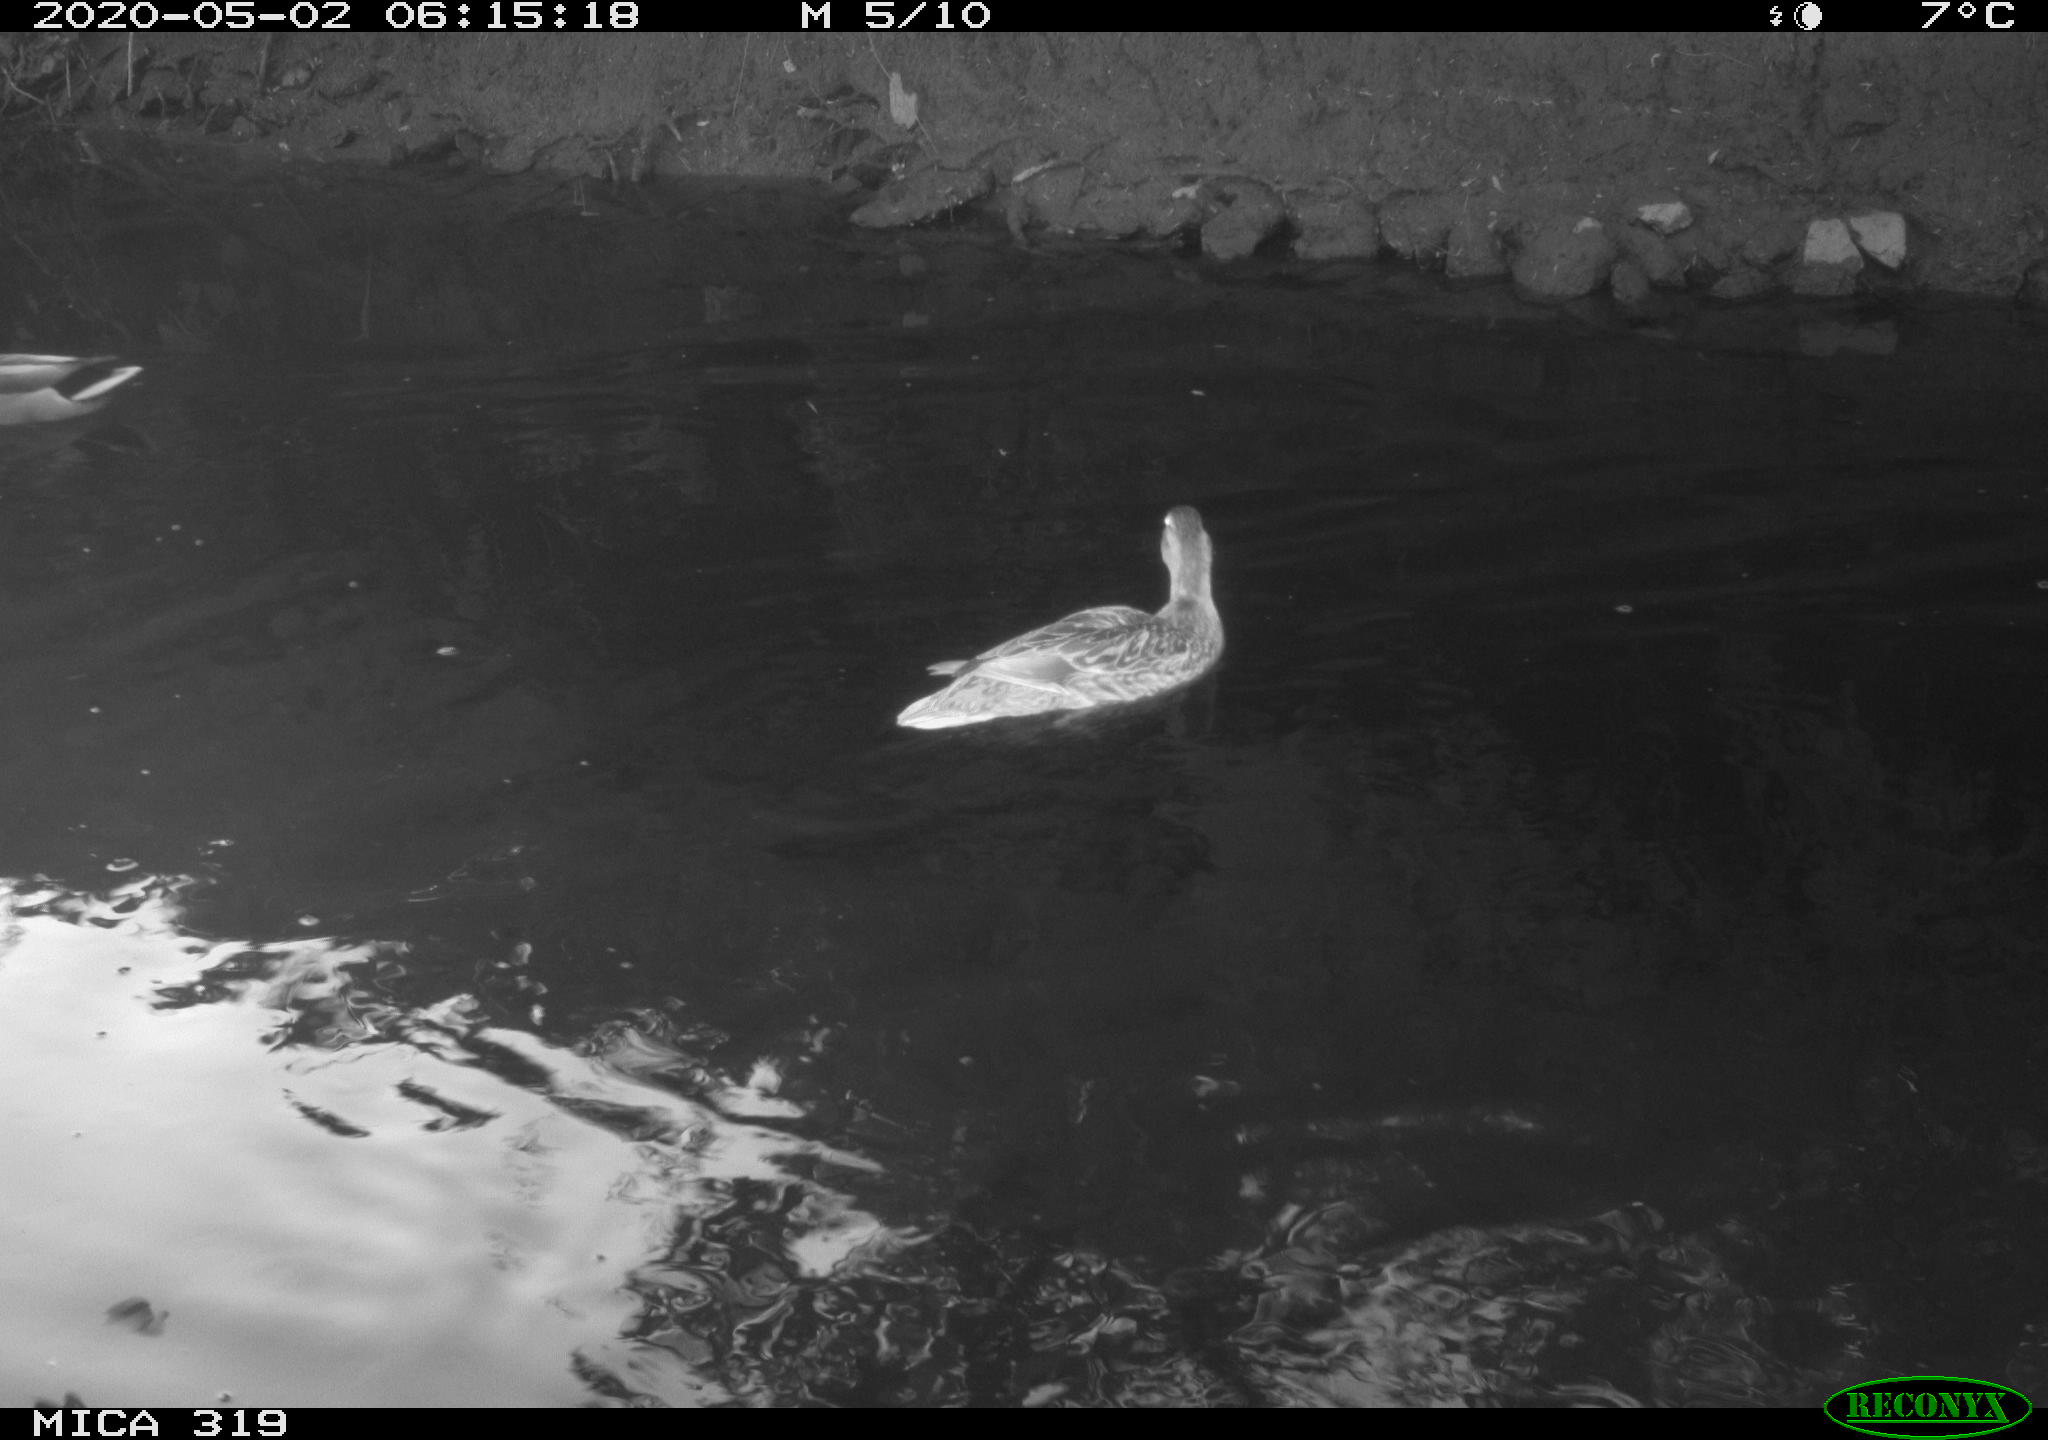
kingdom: Animalia
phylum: Chordata
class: Aves
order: Anseriformes
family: Anatidae
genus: Anas
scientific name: Anas platyrhynchos
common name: Mallard
